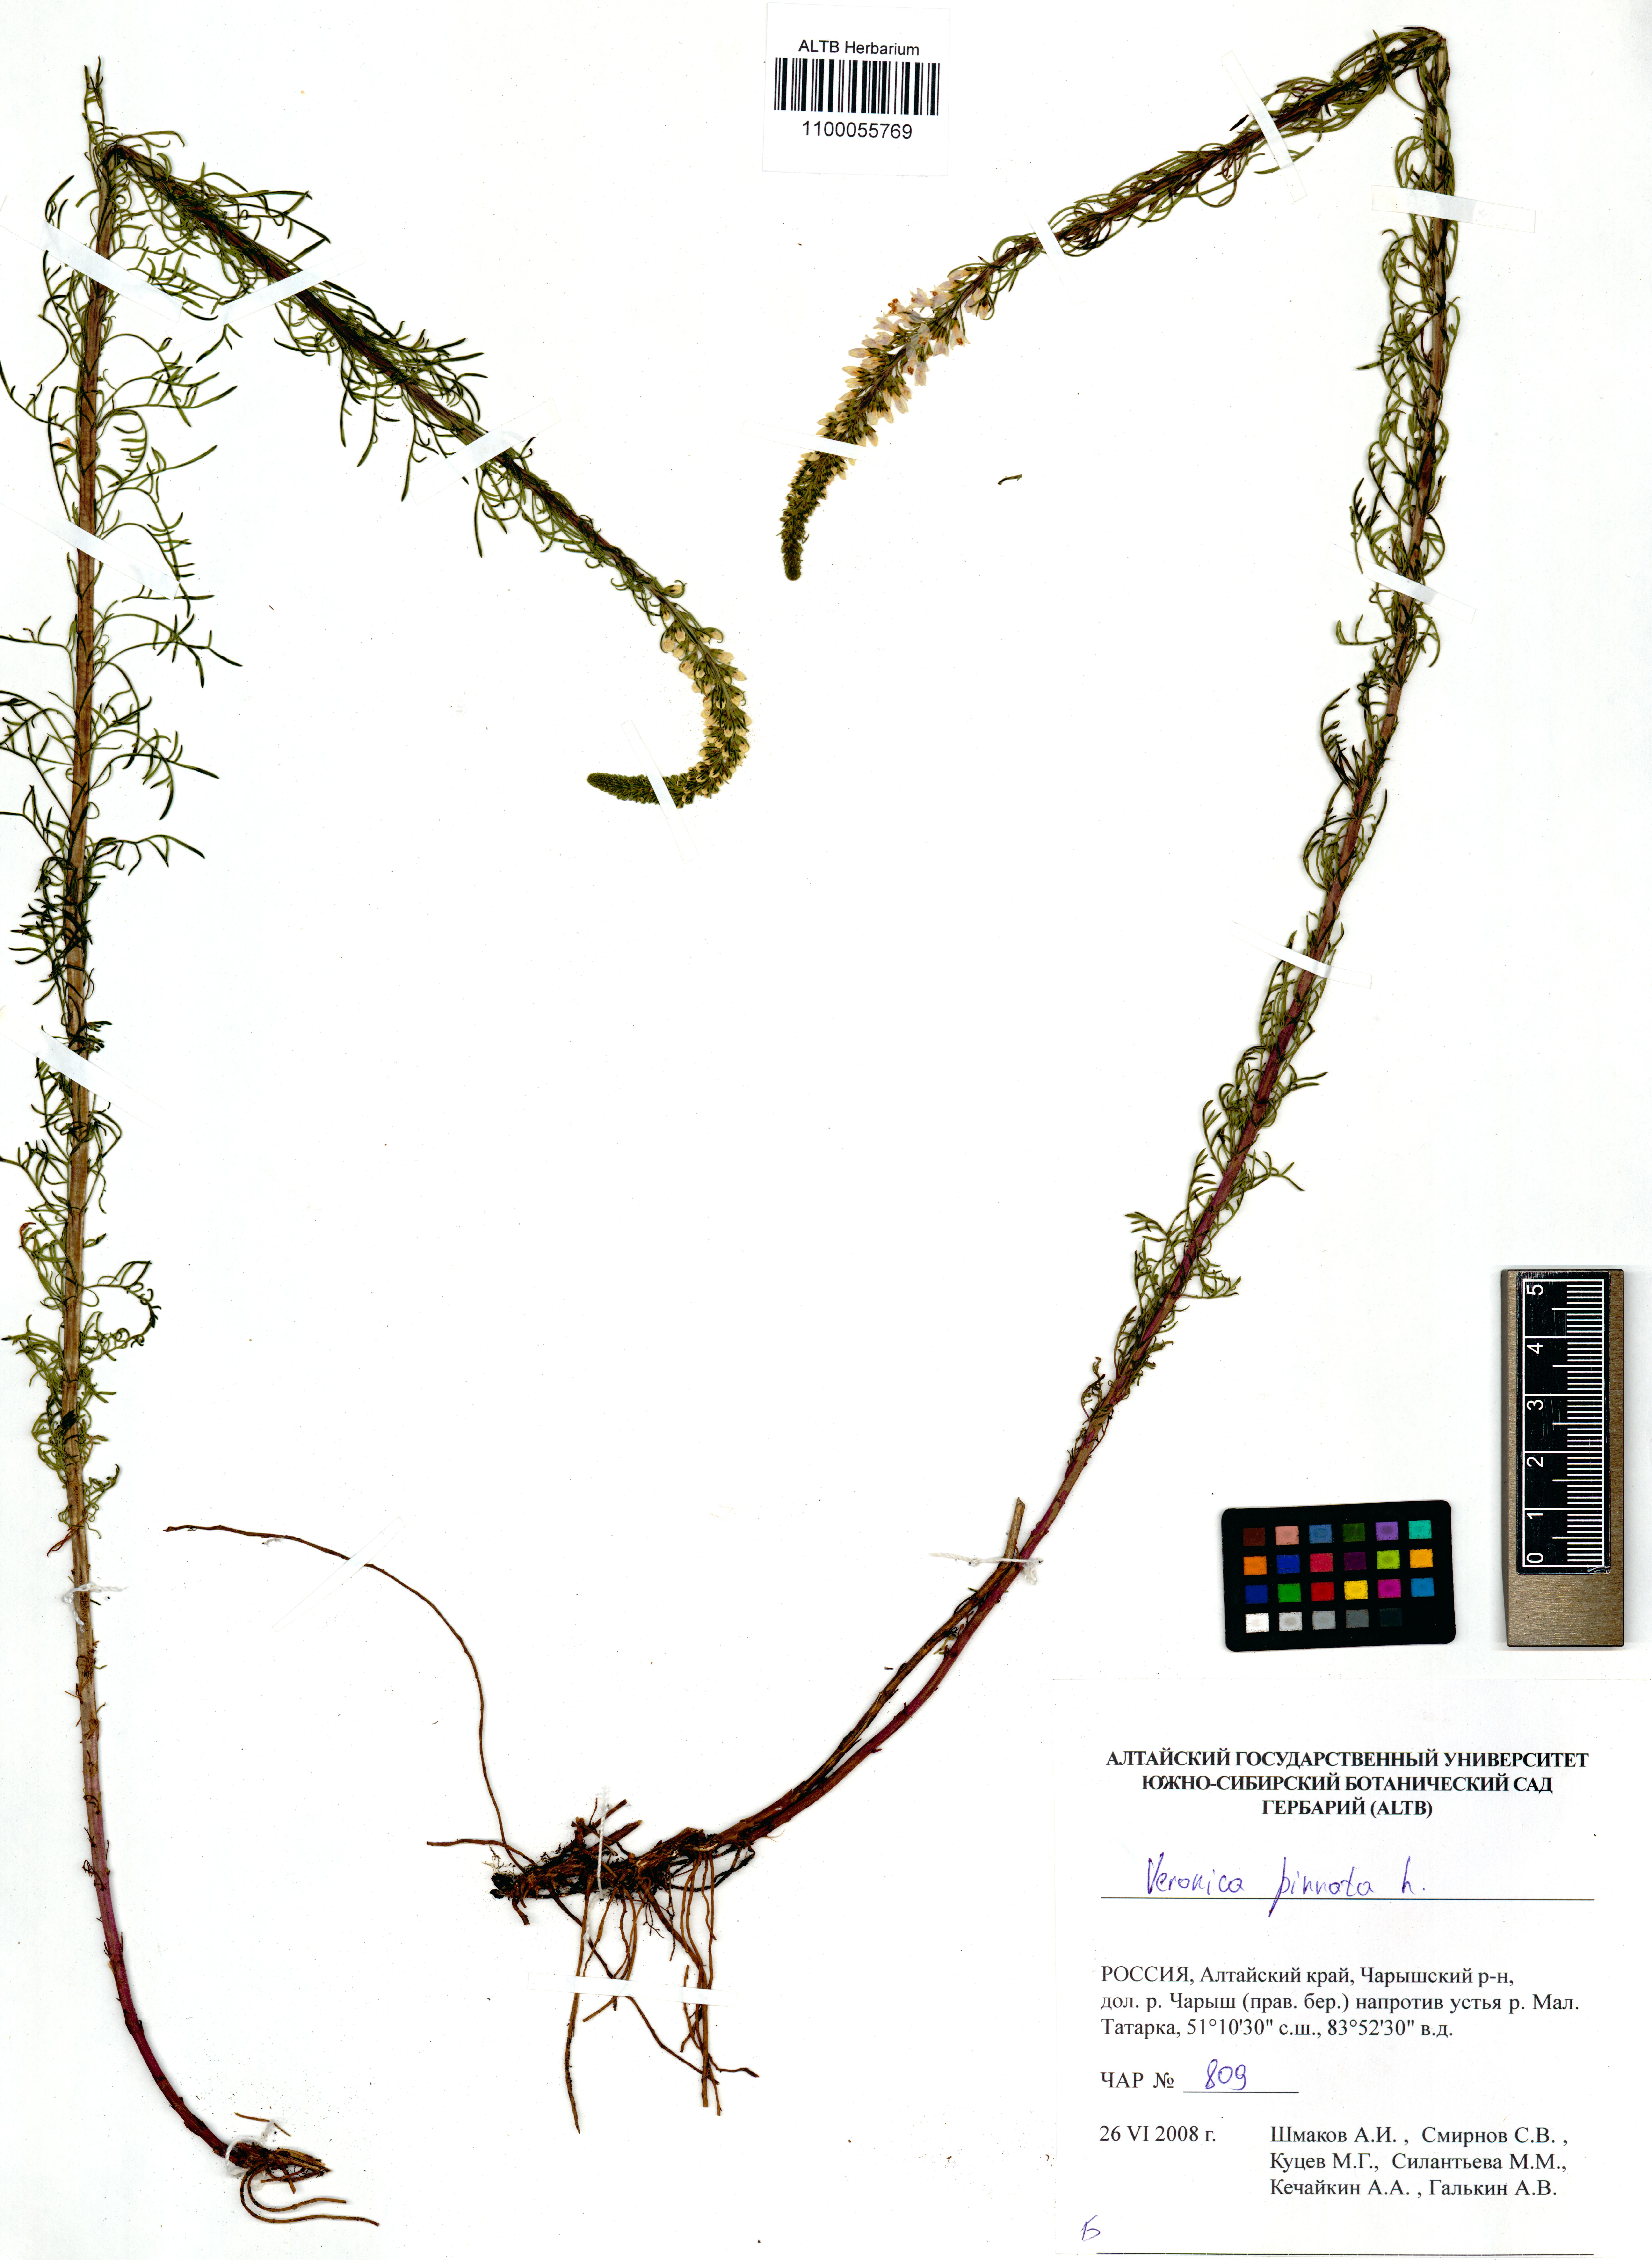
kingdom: Plantae
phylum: Tracheophyta
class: Magnoliopsida
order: Lamiales
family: Plantaginaceae
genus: Veronica
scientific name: Veronica pinnata
